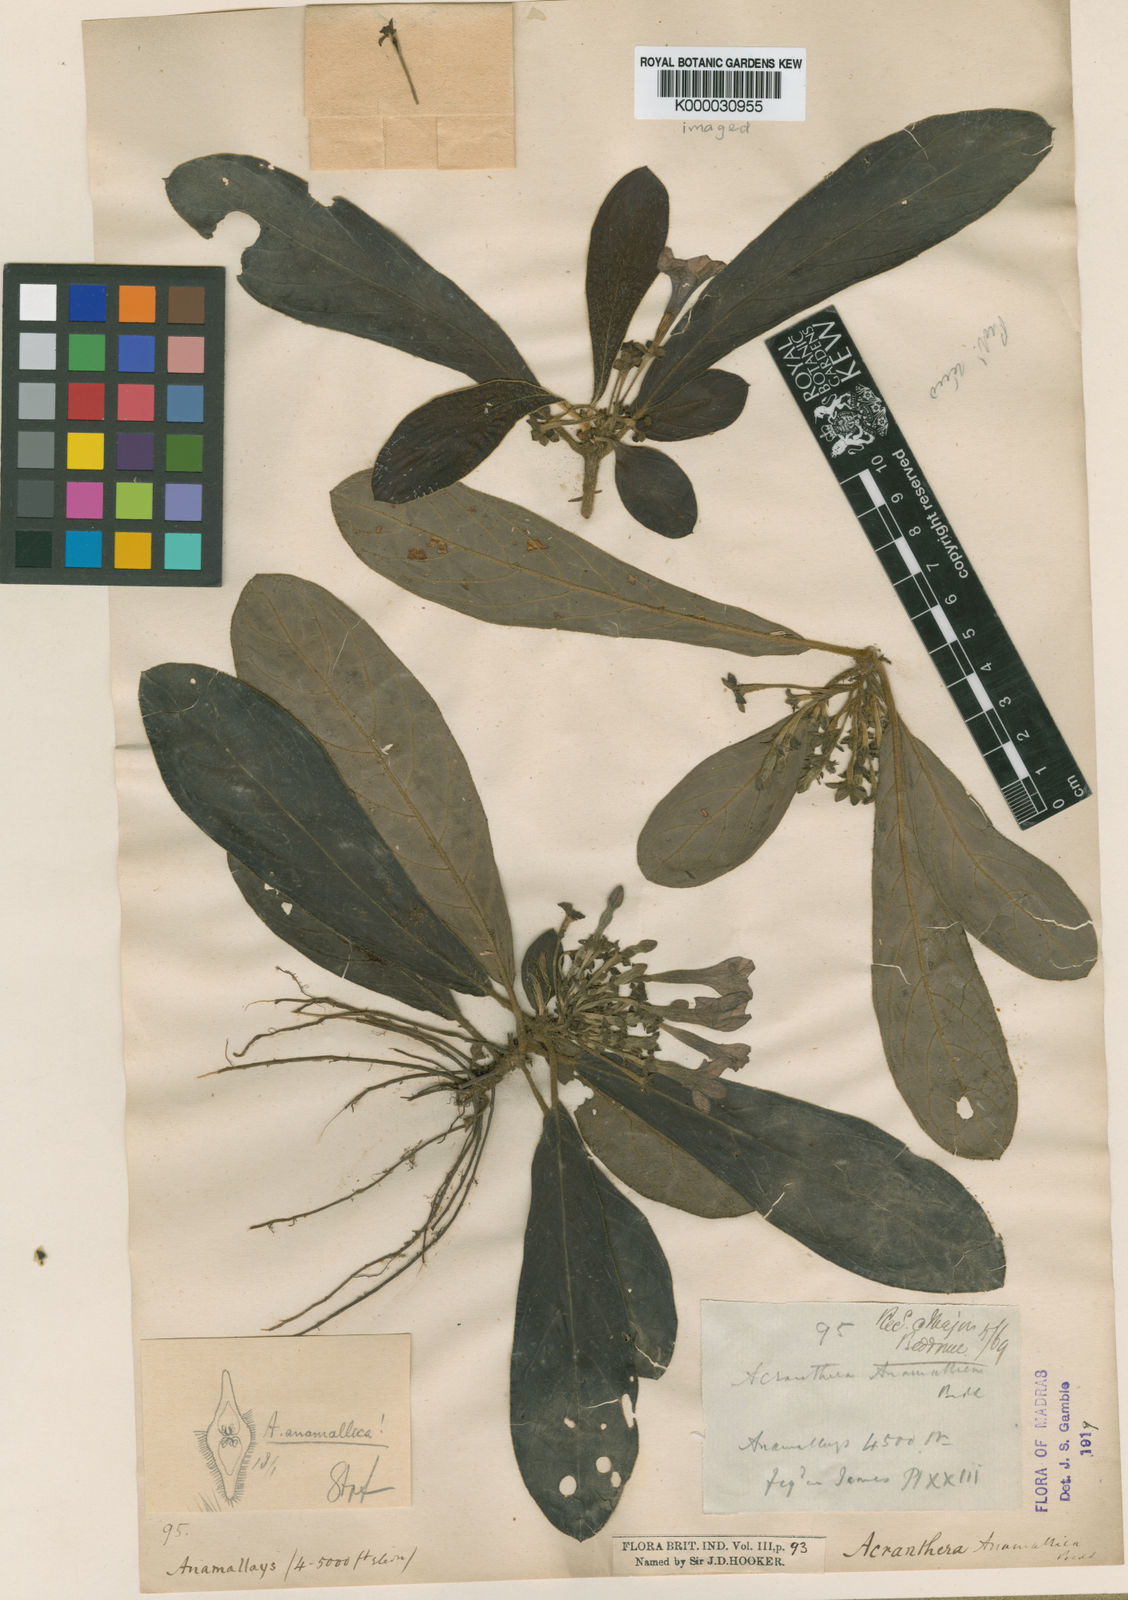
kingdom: Plantae
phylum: Tracheophyta
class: Magnoliopsida
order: Gentianales
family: Rubiaceae
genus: Acranthera
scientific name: Acranthera anamallica
